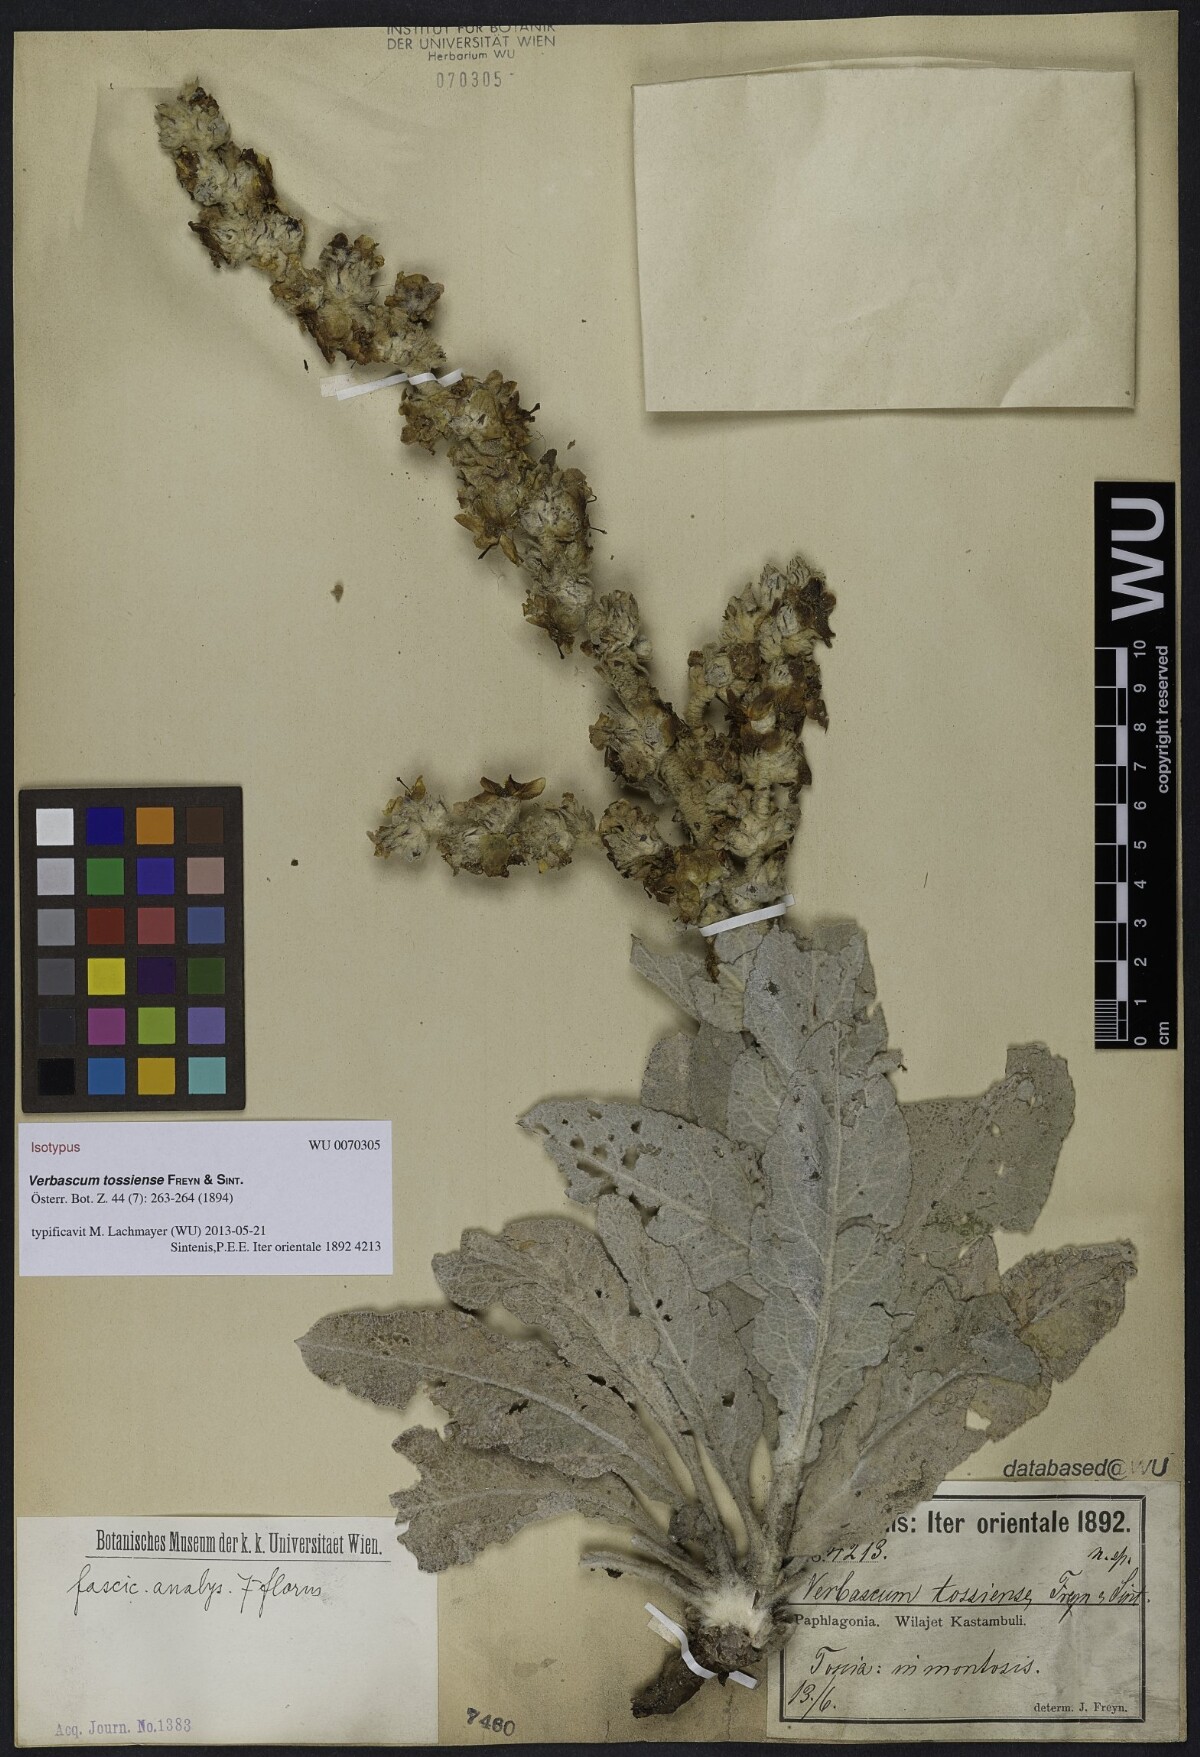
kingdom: Plantae
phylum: Tracheophyta
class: Magnoliopsida
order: Lamiales
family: Scrophulariaceae
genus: Verbascum
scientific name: Verbascum tossiense
